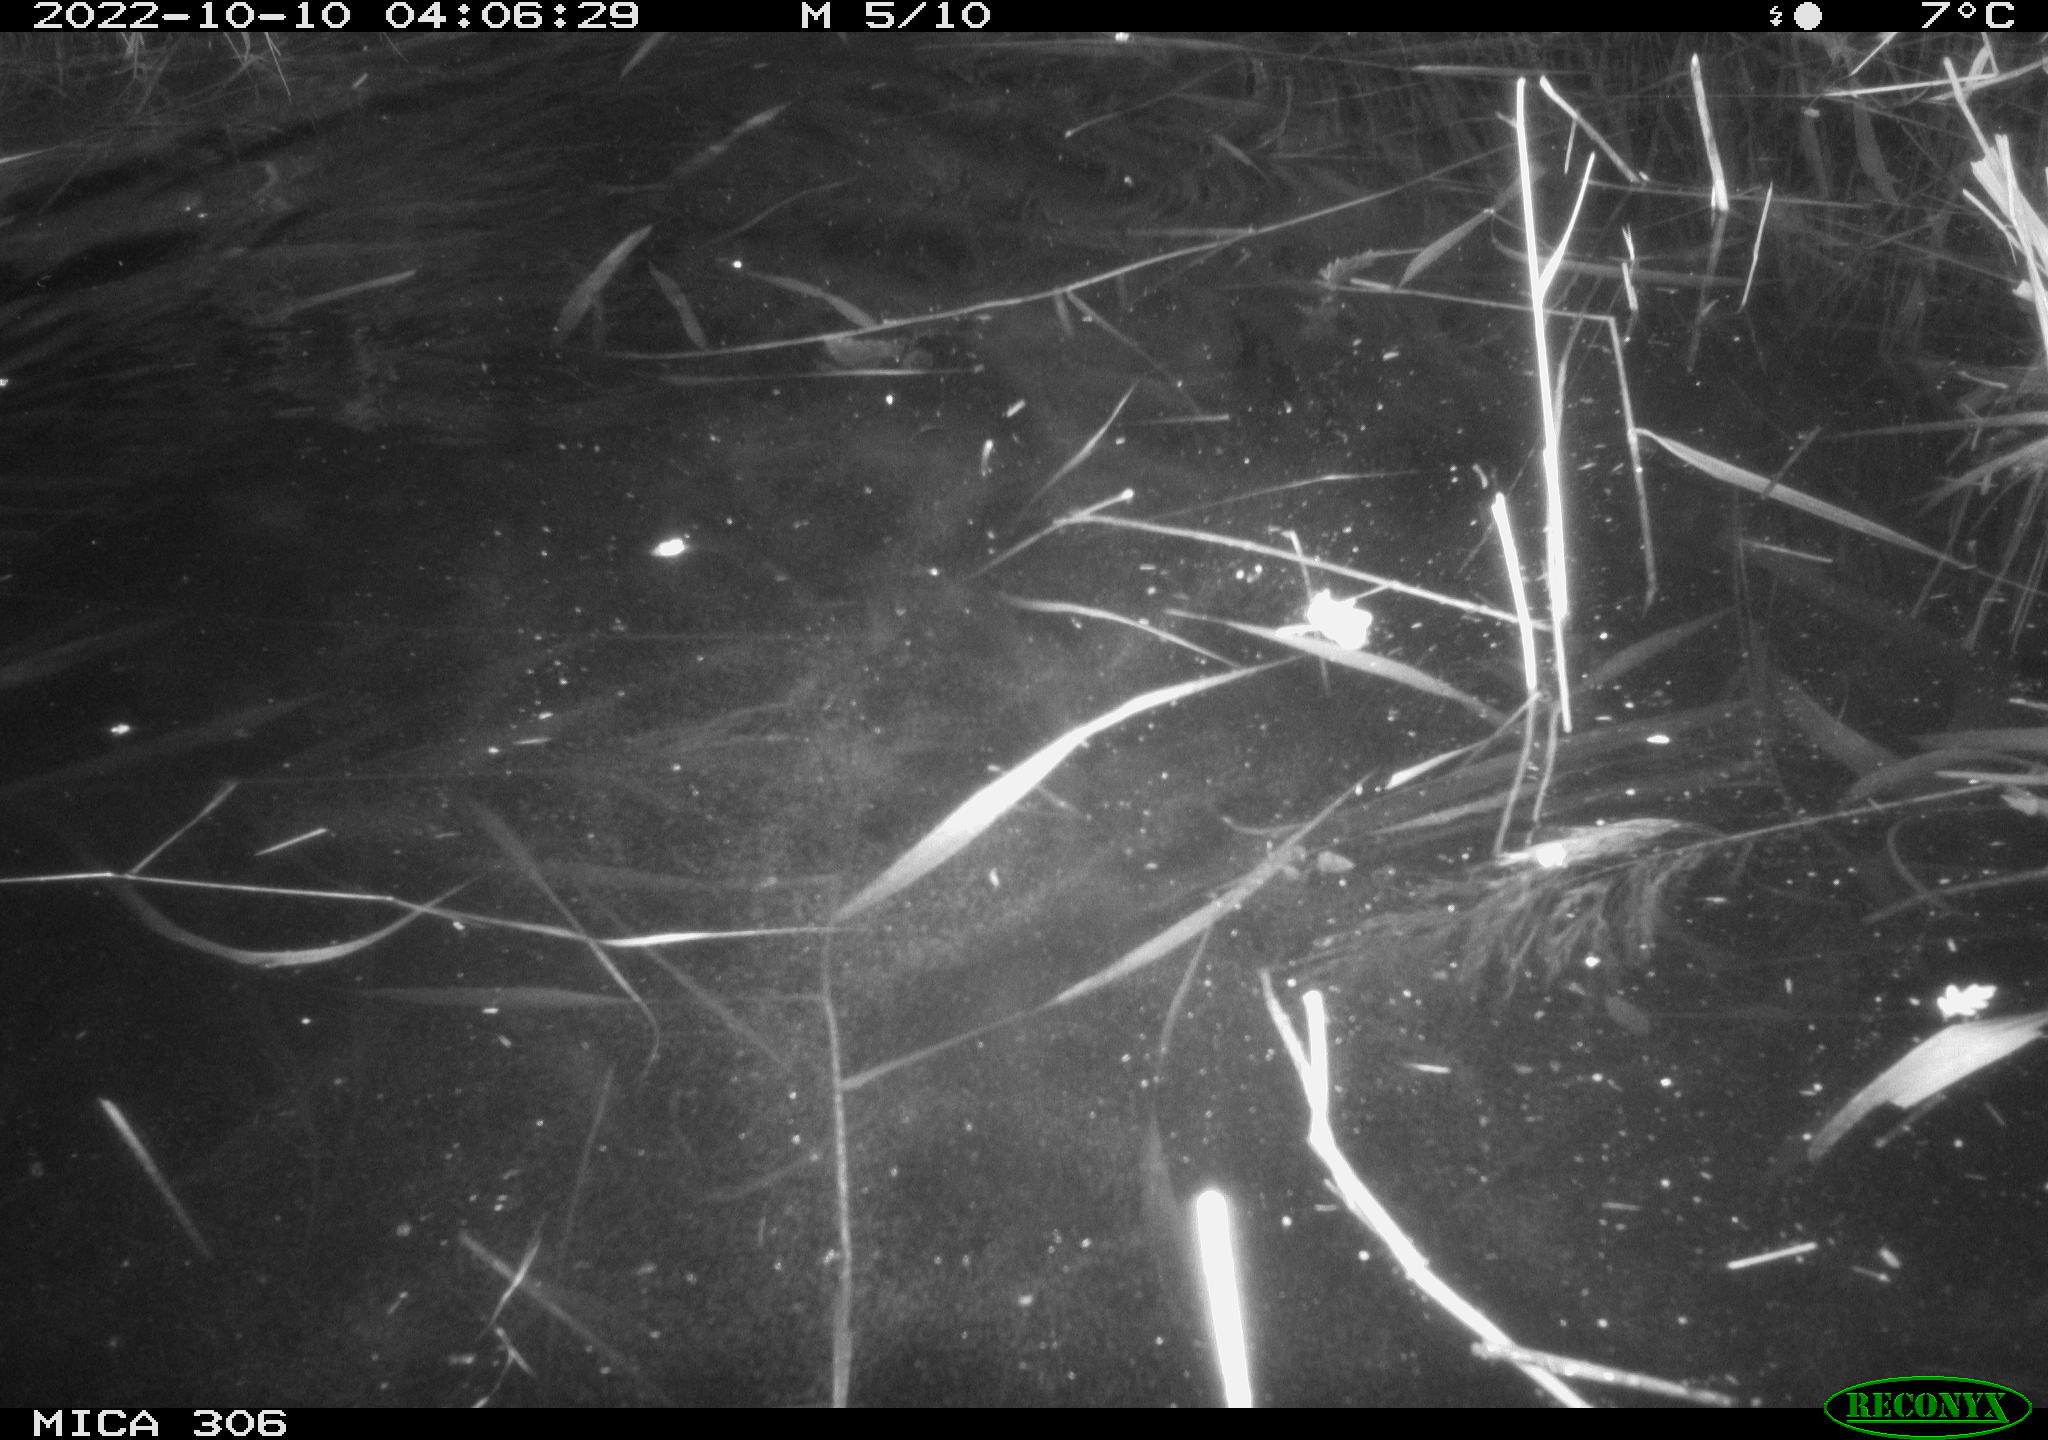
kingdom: Animalia
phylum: Chordata
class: Mammalia
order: Rodentia
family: Muridae
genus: Rattus
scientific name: Rattus norvegicus
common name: Brown rat
